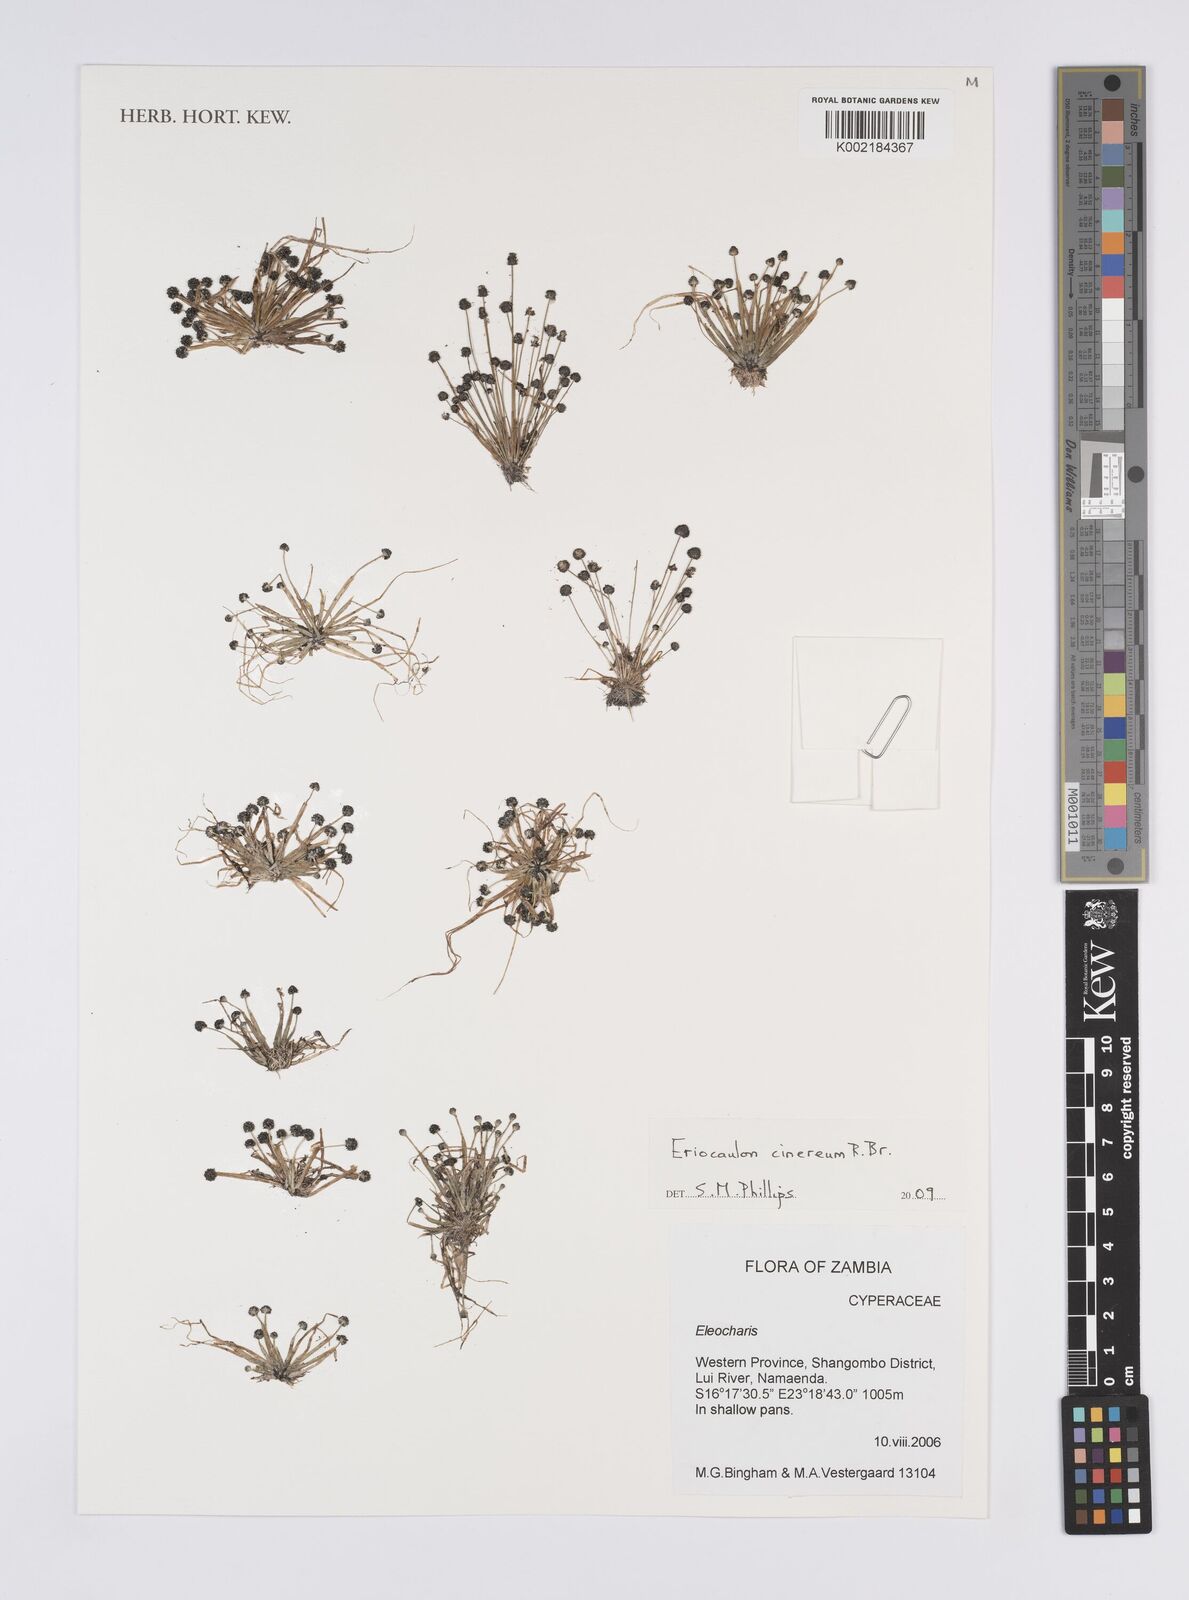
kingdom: Plantae
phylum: Tracheophyta
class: Liliopsida
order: Poales
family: Eriocaulaceae
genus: Eriocaulon
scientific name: Eriocaulon cinereum
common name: Ashy pipewort
